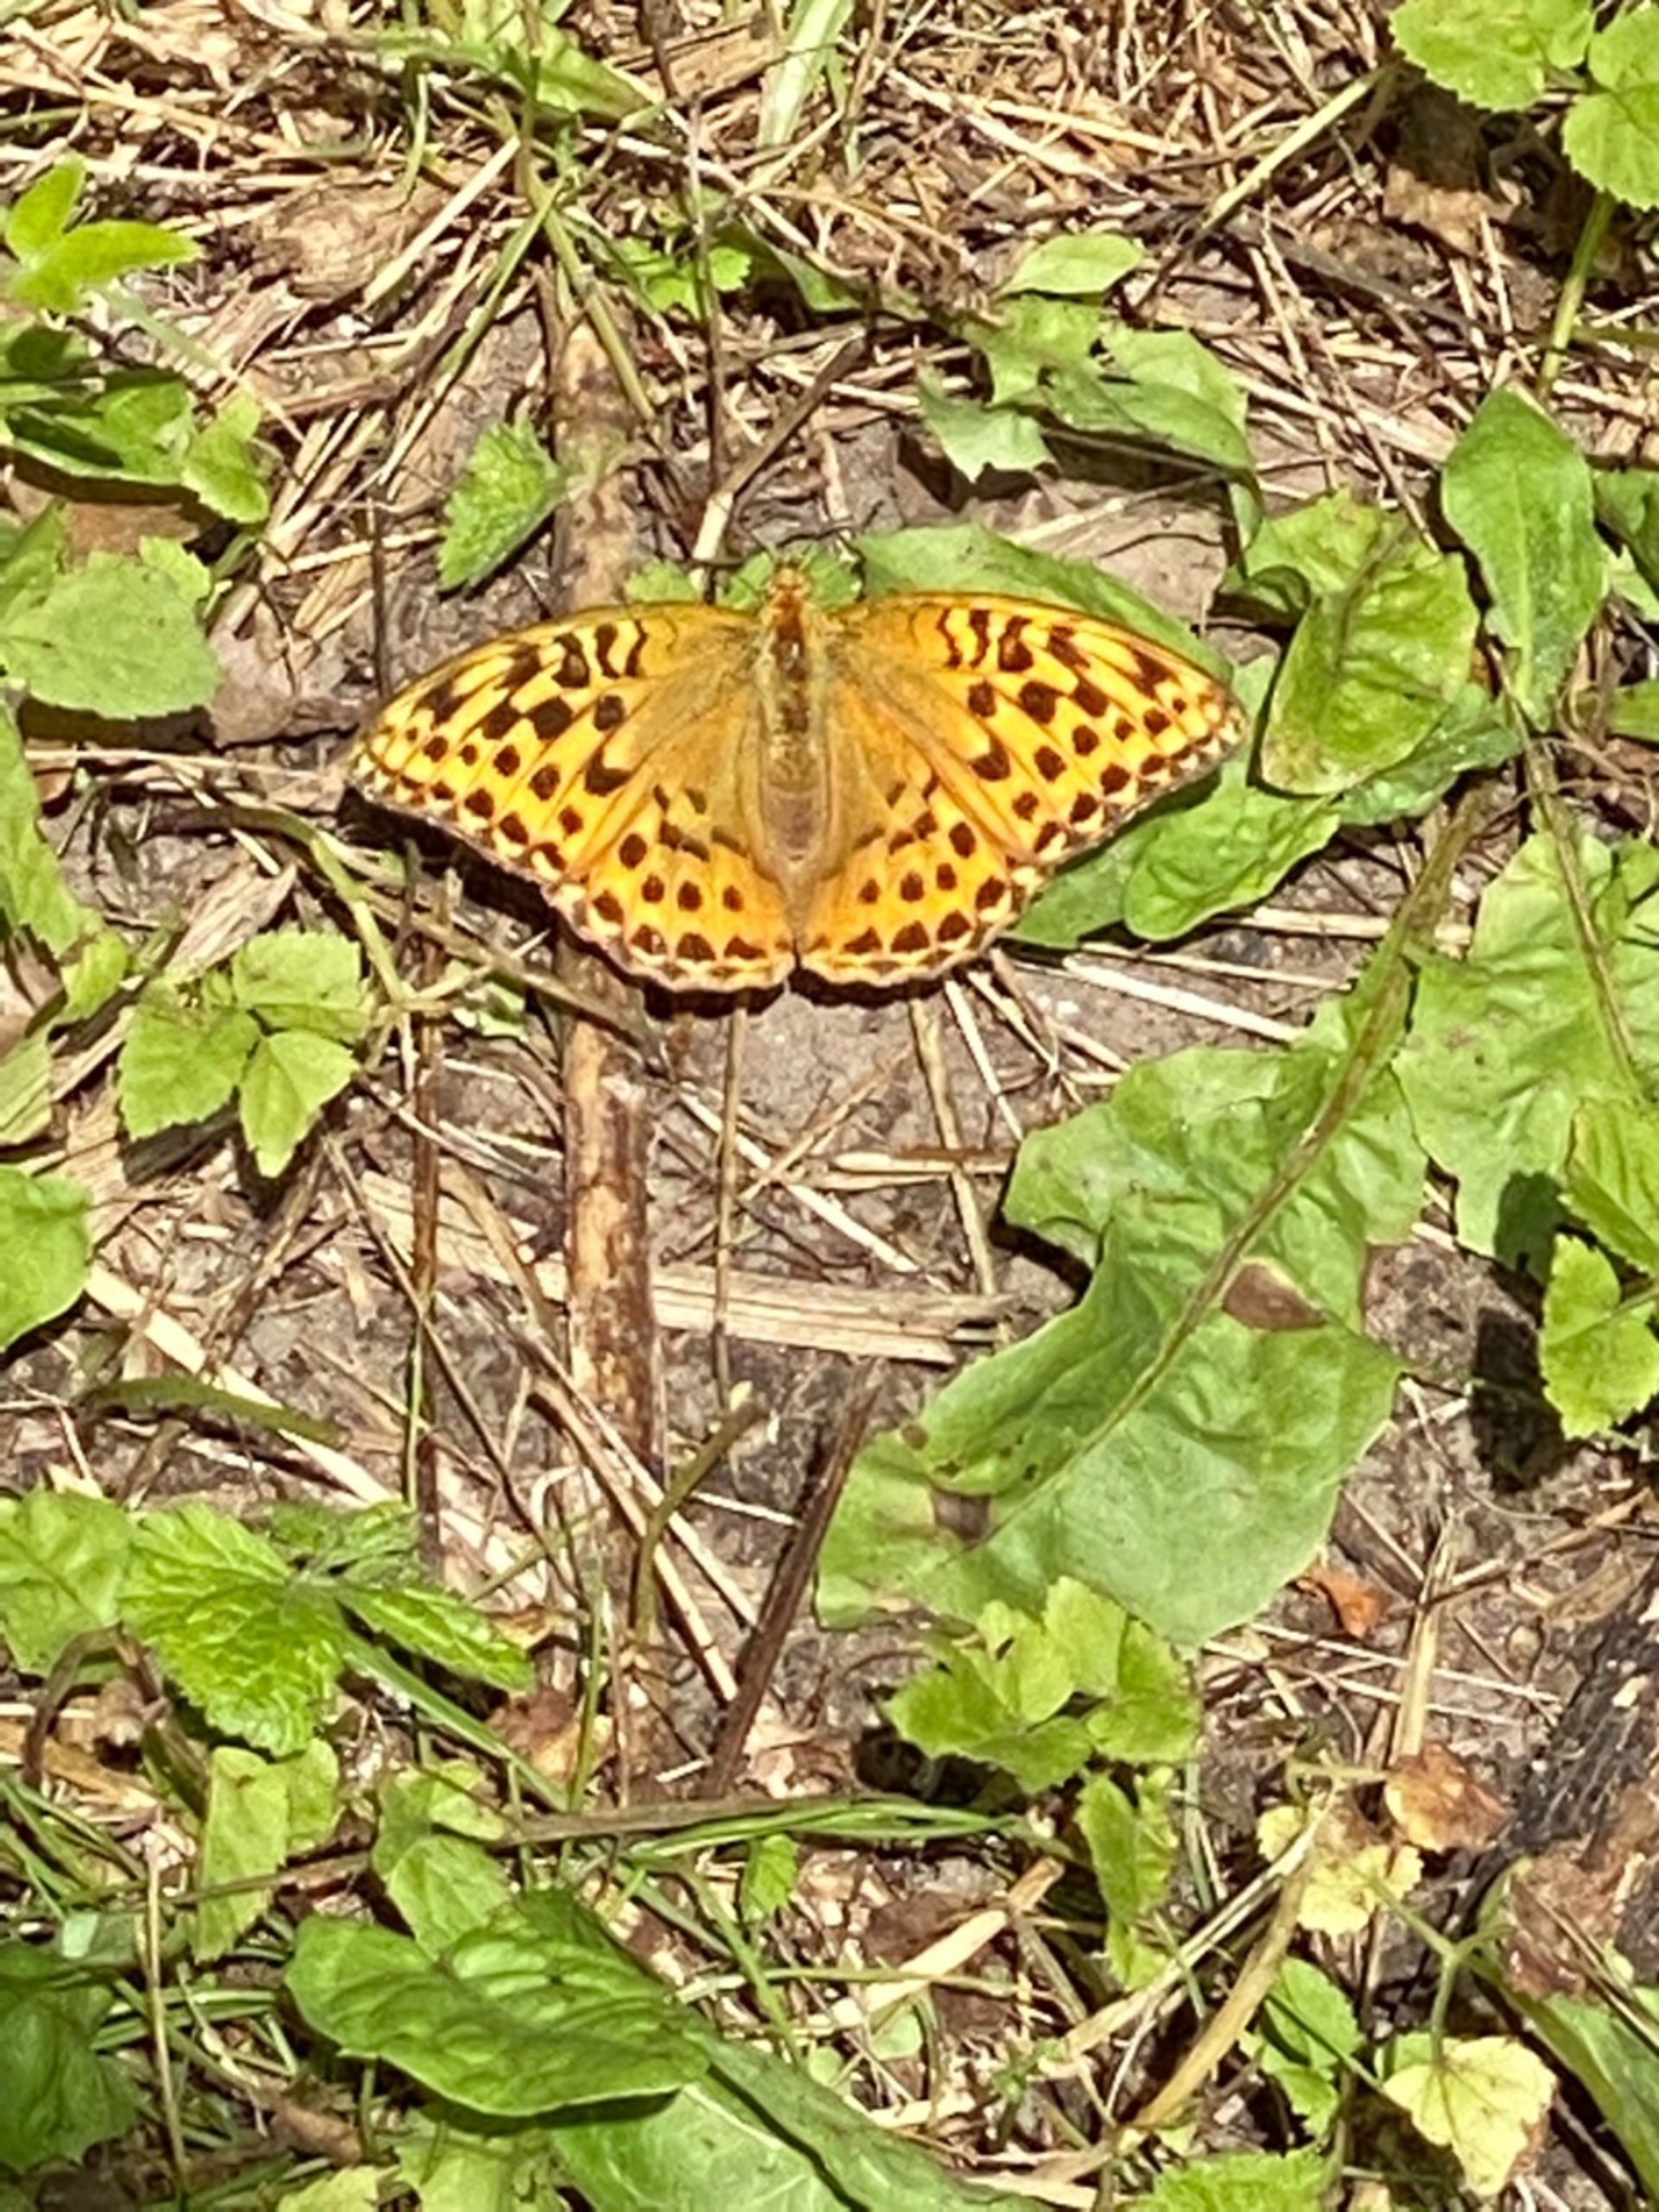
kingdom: Animalia
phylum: Arthropoda
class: Insecta
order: Lepidoptera
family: Nymphalidae
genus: Argynnis
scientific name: Argynnis paphia
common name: Kejserkåbe
